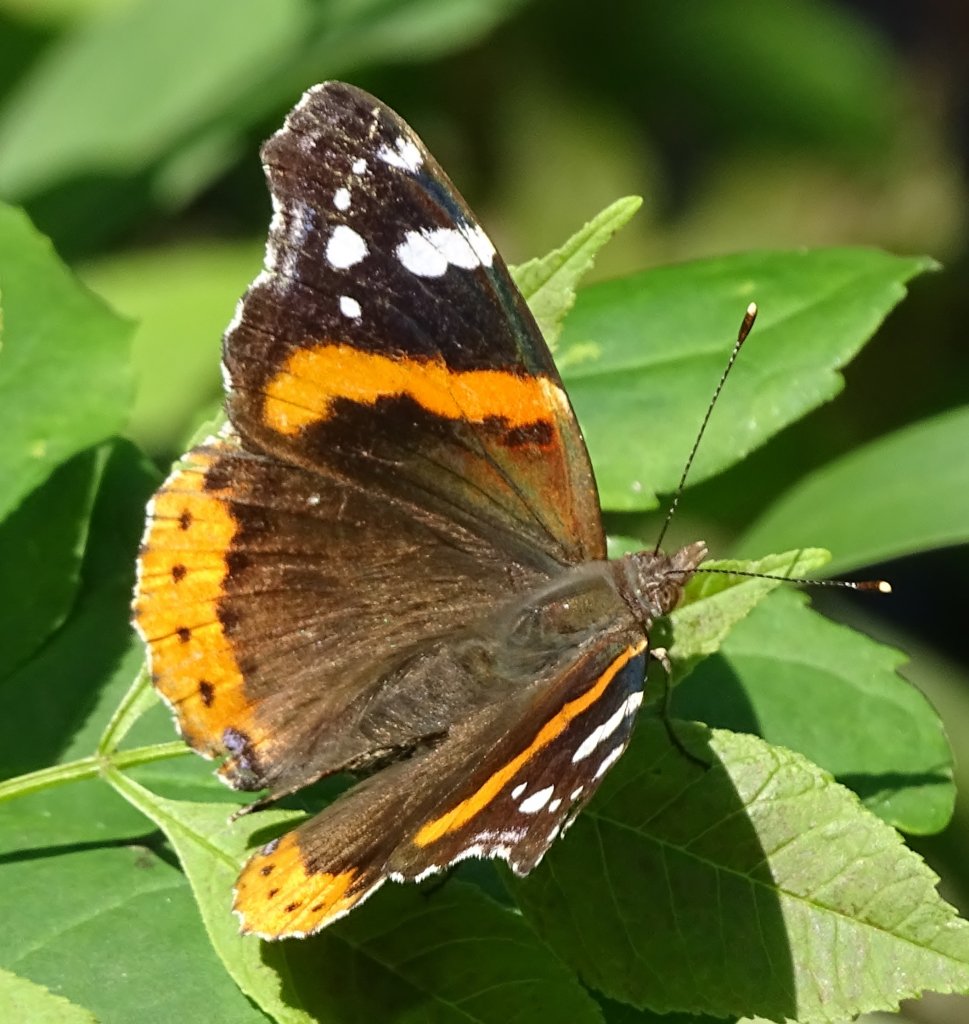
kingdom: Animalia
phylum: Arthropoda
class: Insecta
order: Lepidoptera
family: Nymphalidae
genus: Vanessa
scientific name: Vanessa atalanta
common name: Red Admiral
